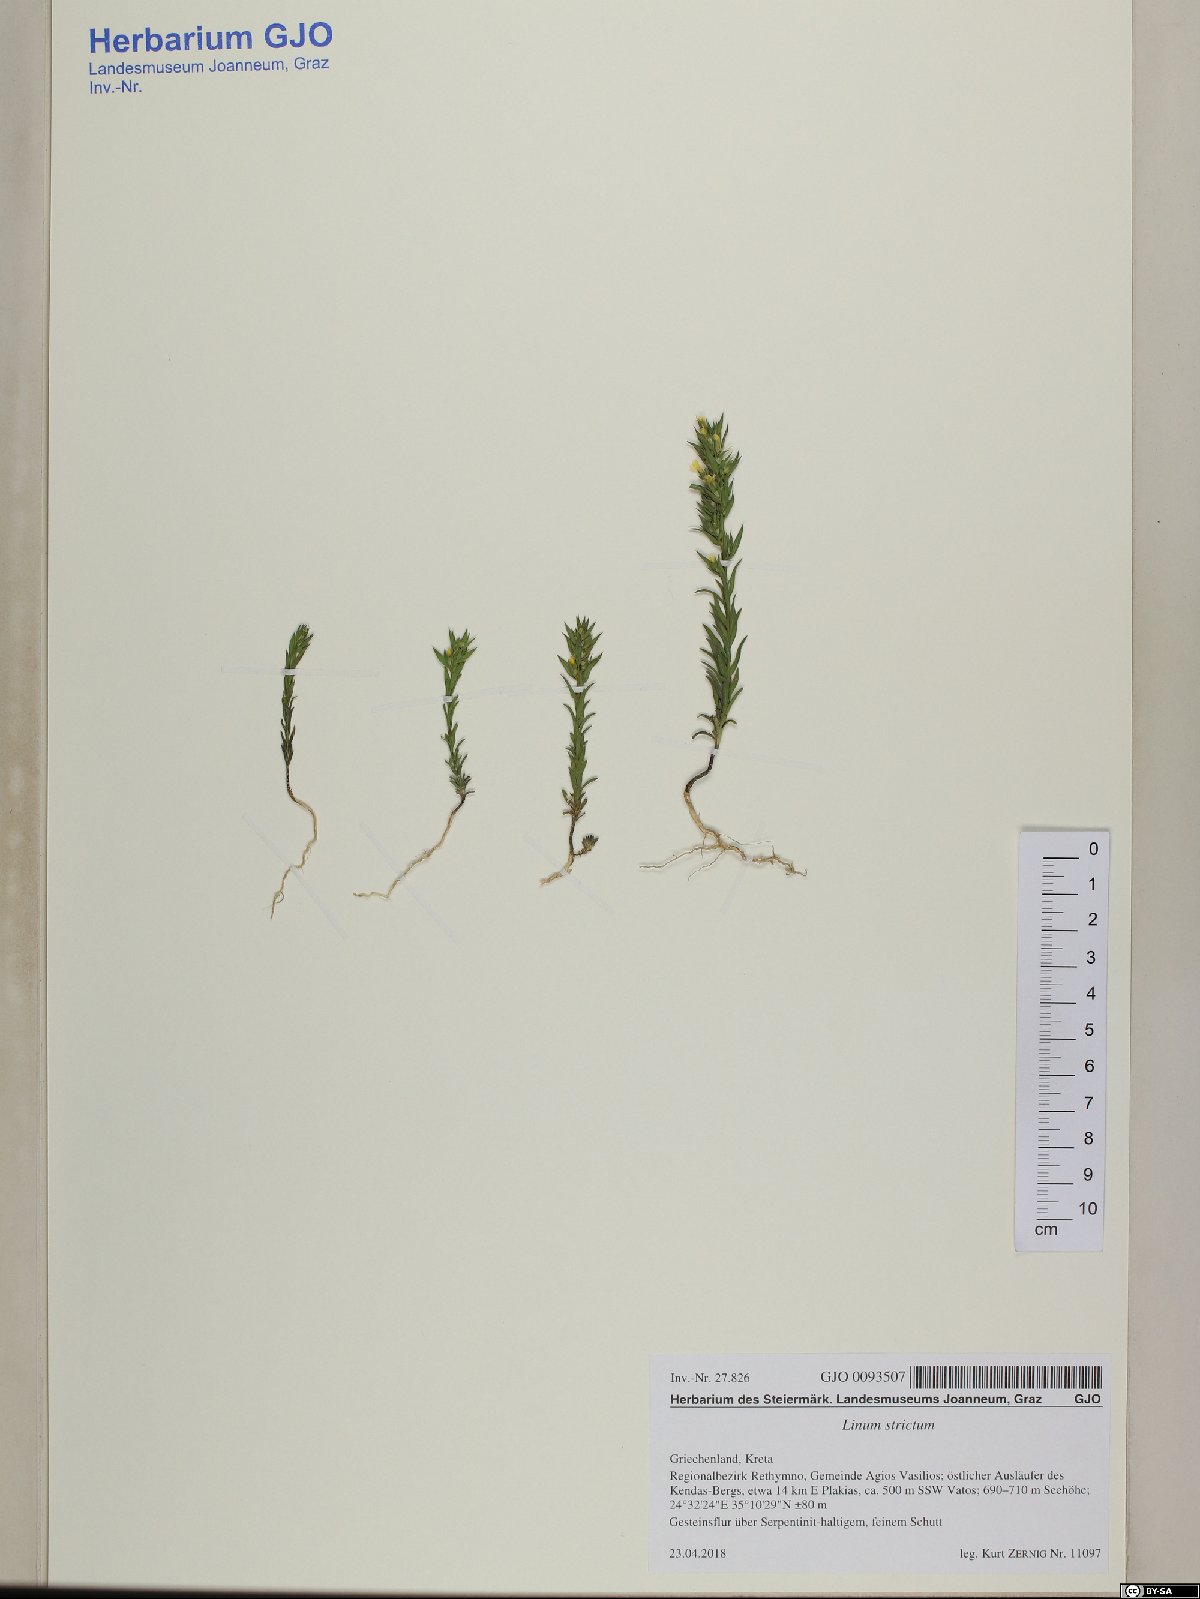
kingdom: Plantae
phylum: Tracheophyta
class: Magnoliopsida
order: Malpighiales
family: Linaceae
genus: Linum
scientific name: Linum strictum
